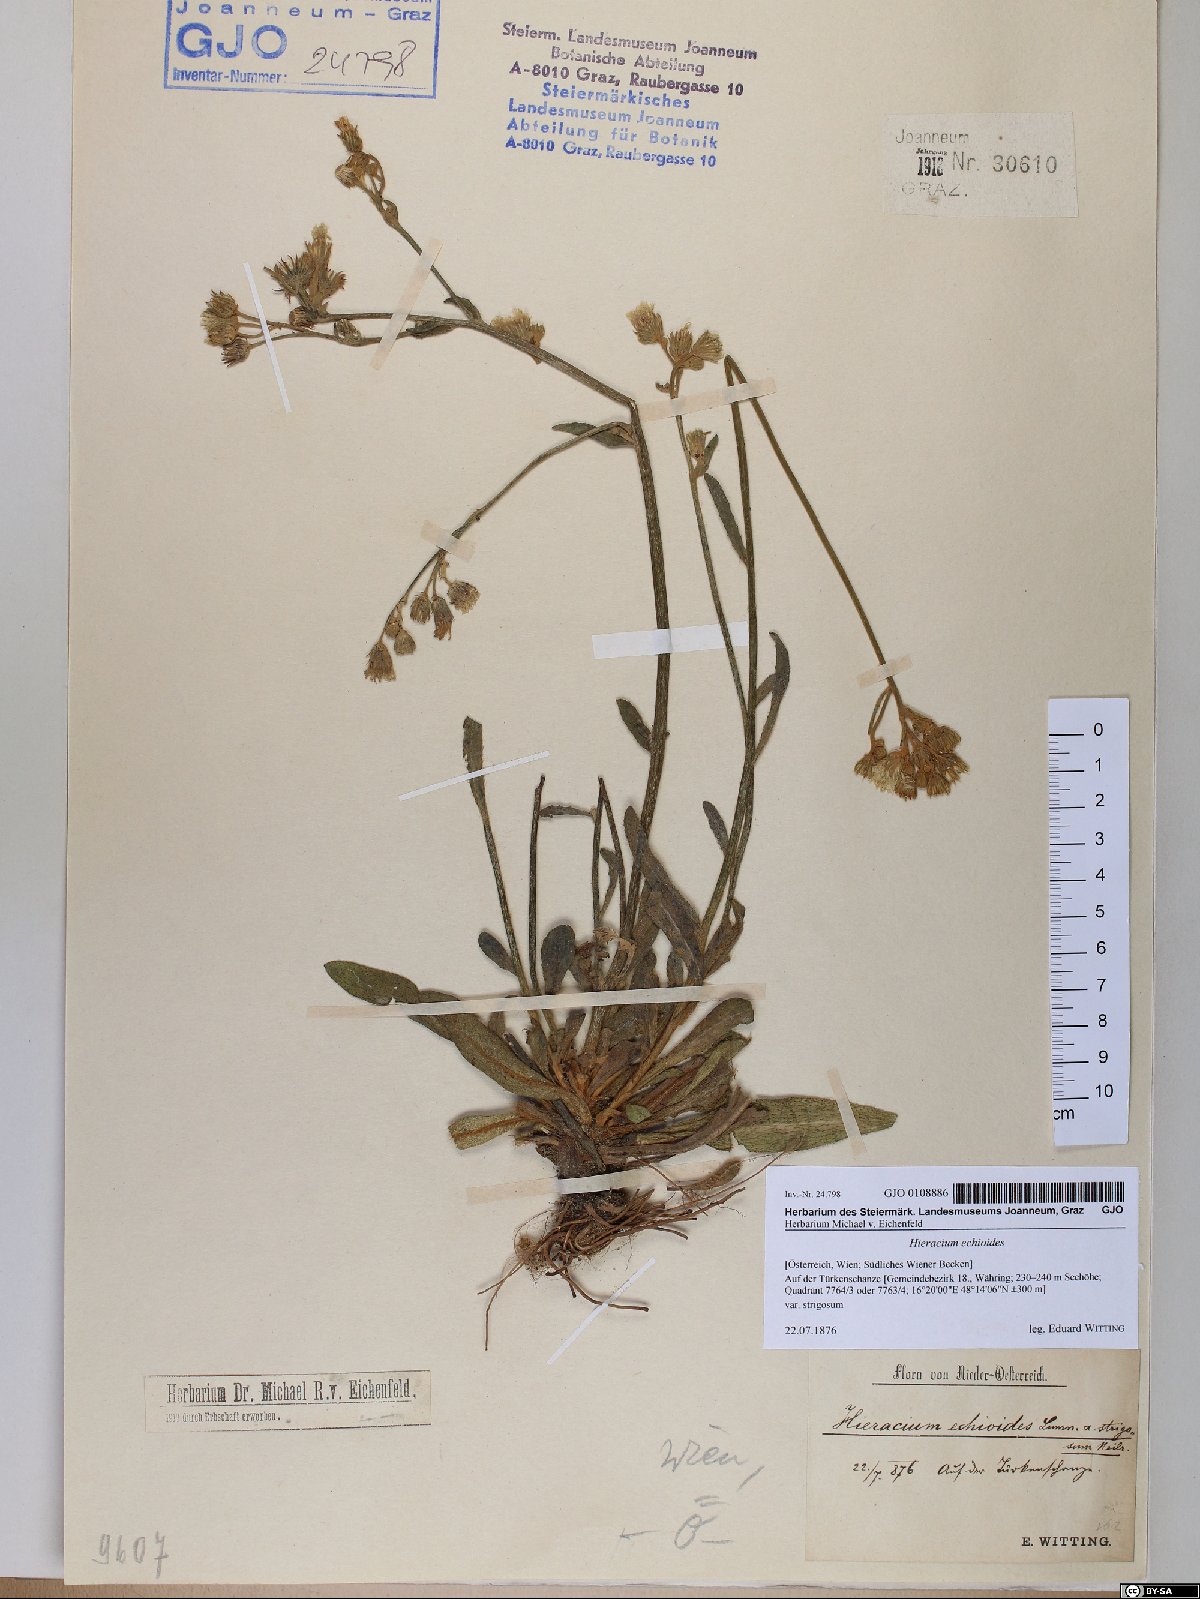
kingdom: Plantae
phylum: Tracheophyta
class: Magnoliopsida
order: Asterales
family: Asteraceae
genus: Pilosella
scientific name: Pilosella echioides
